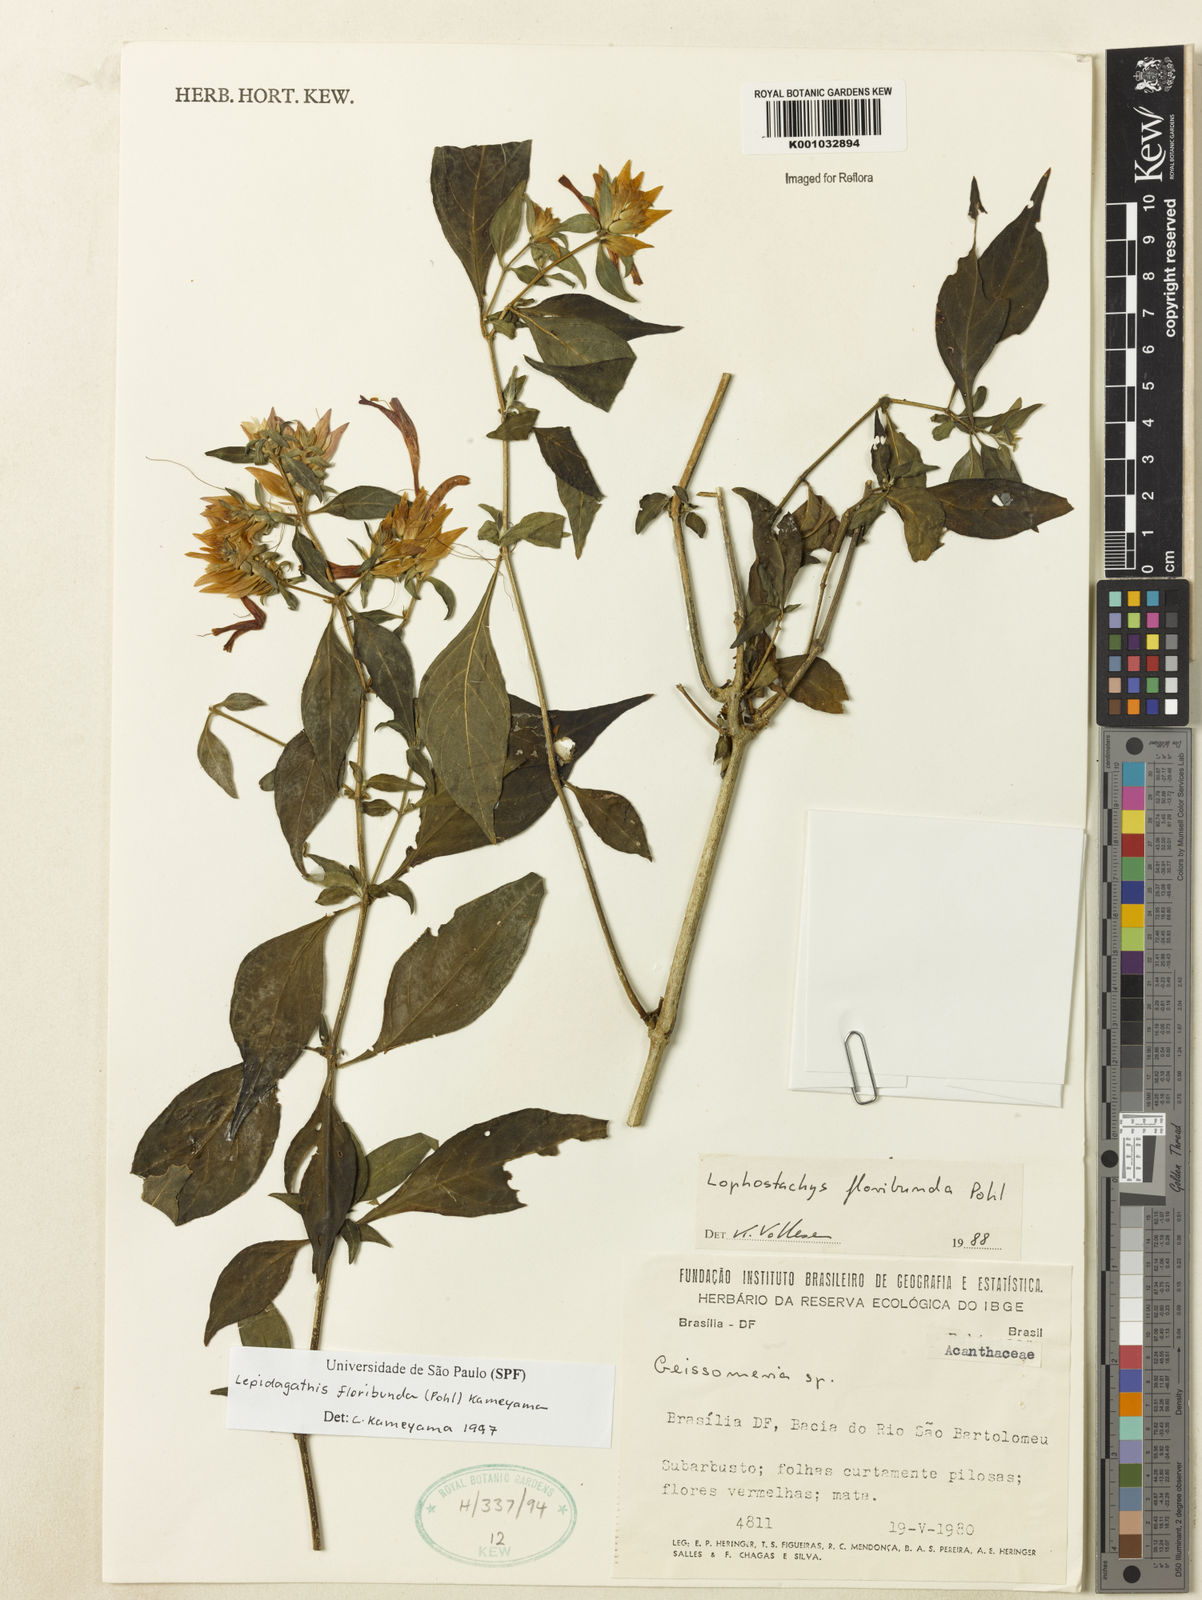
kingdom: Plantae
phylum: Tracheophyta
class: Magnoliopsida
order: Lamiales
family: Acanthaceae
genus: Lepidagathis
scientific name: Lepidagathis floribunda
